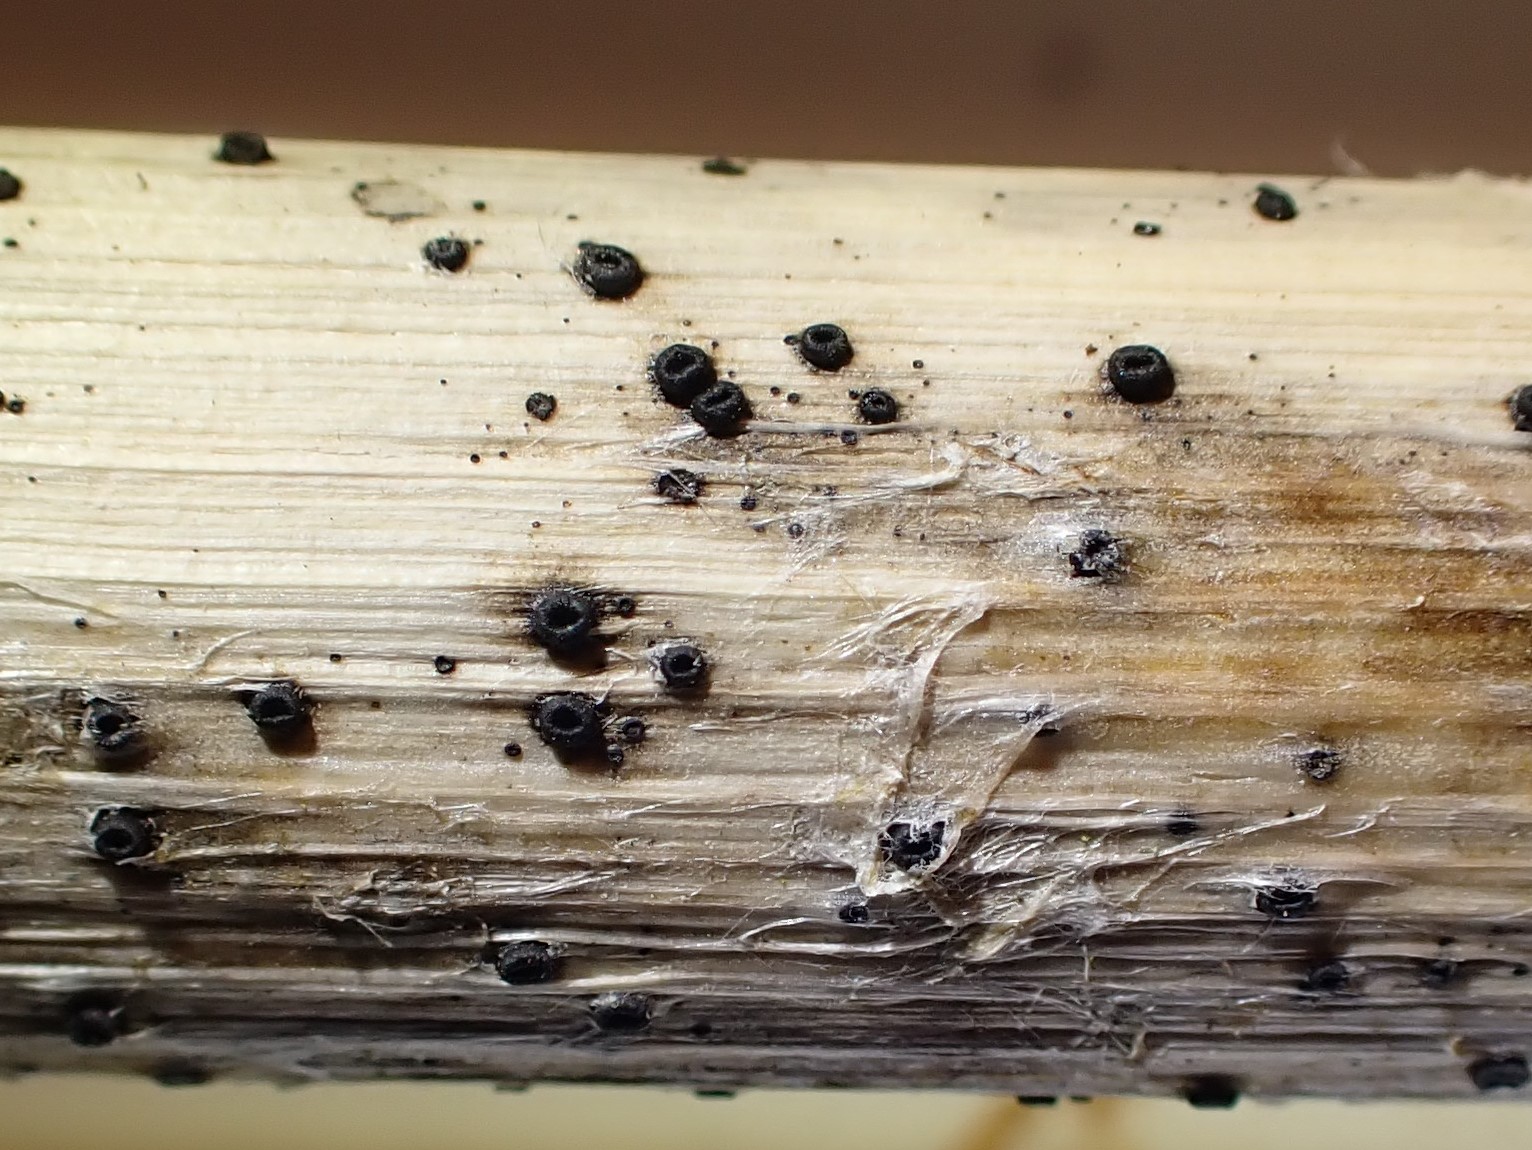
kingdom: Fungi
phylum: Ascomycota
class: Leotiomycetes
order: Helotiales
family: Heterosphaeriaceae
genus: Heterosphaeria
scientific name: Heterosphaeria
